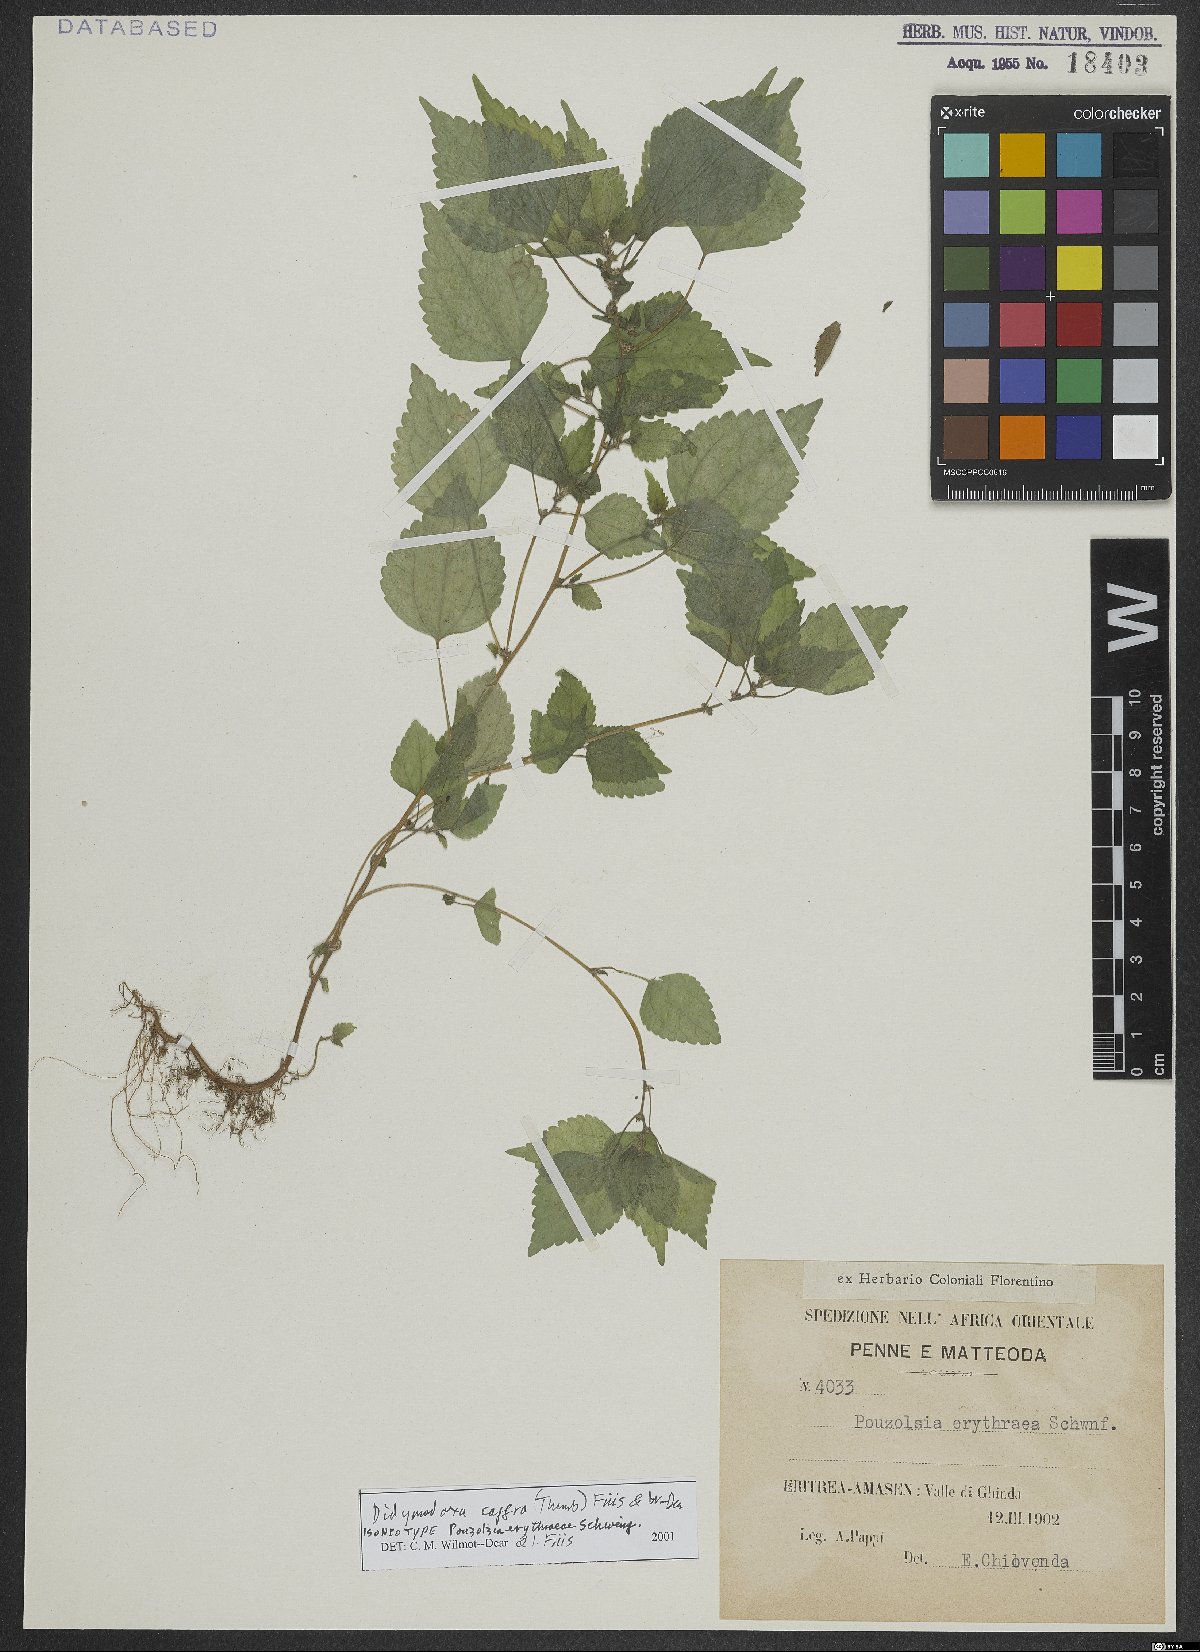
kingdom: Plantae
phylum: Tracheophyta
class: Magnoliopsida
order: Rosales
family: Urticaceae
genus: Didymodoxa
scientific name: Didymodoxa caffra
